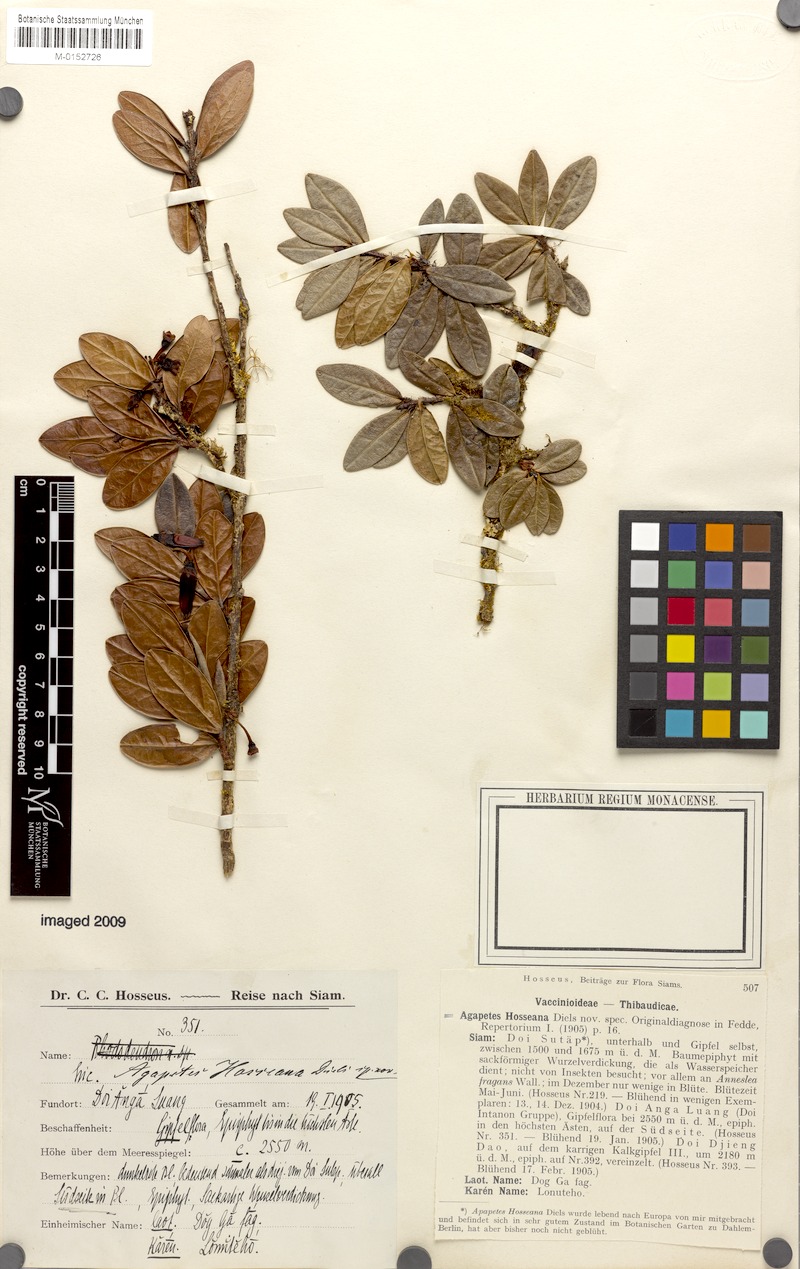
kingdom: Plantae
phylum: Tracheophyta
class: Magnoliopsida
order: Ericales
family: Ericaceae
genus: Agapetes
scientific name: Agapetes hosseana
